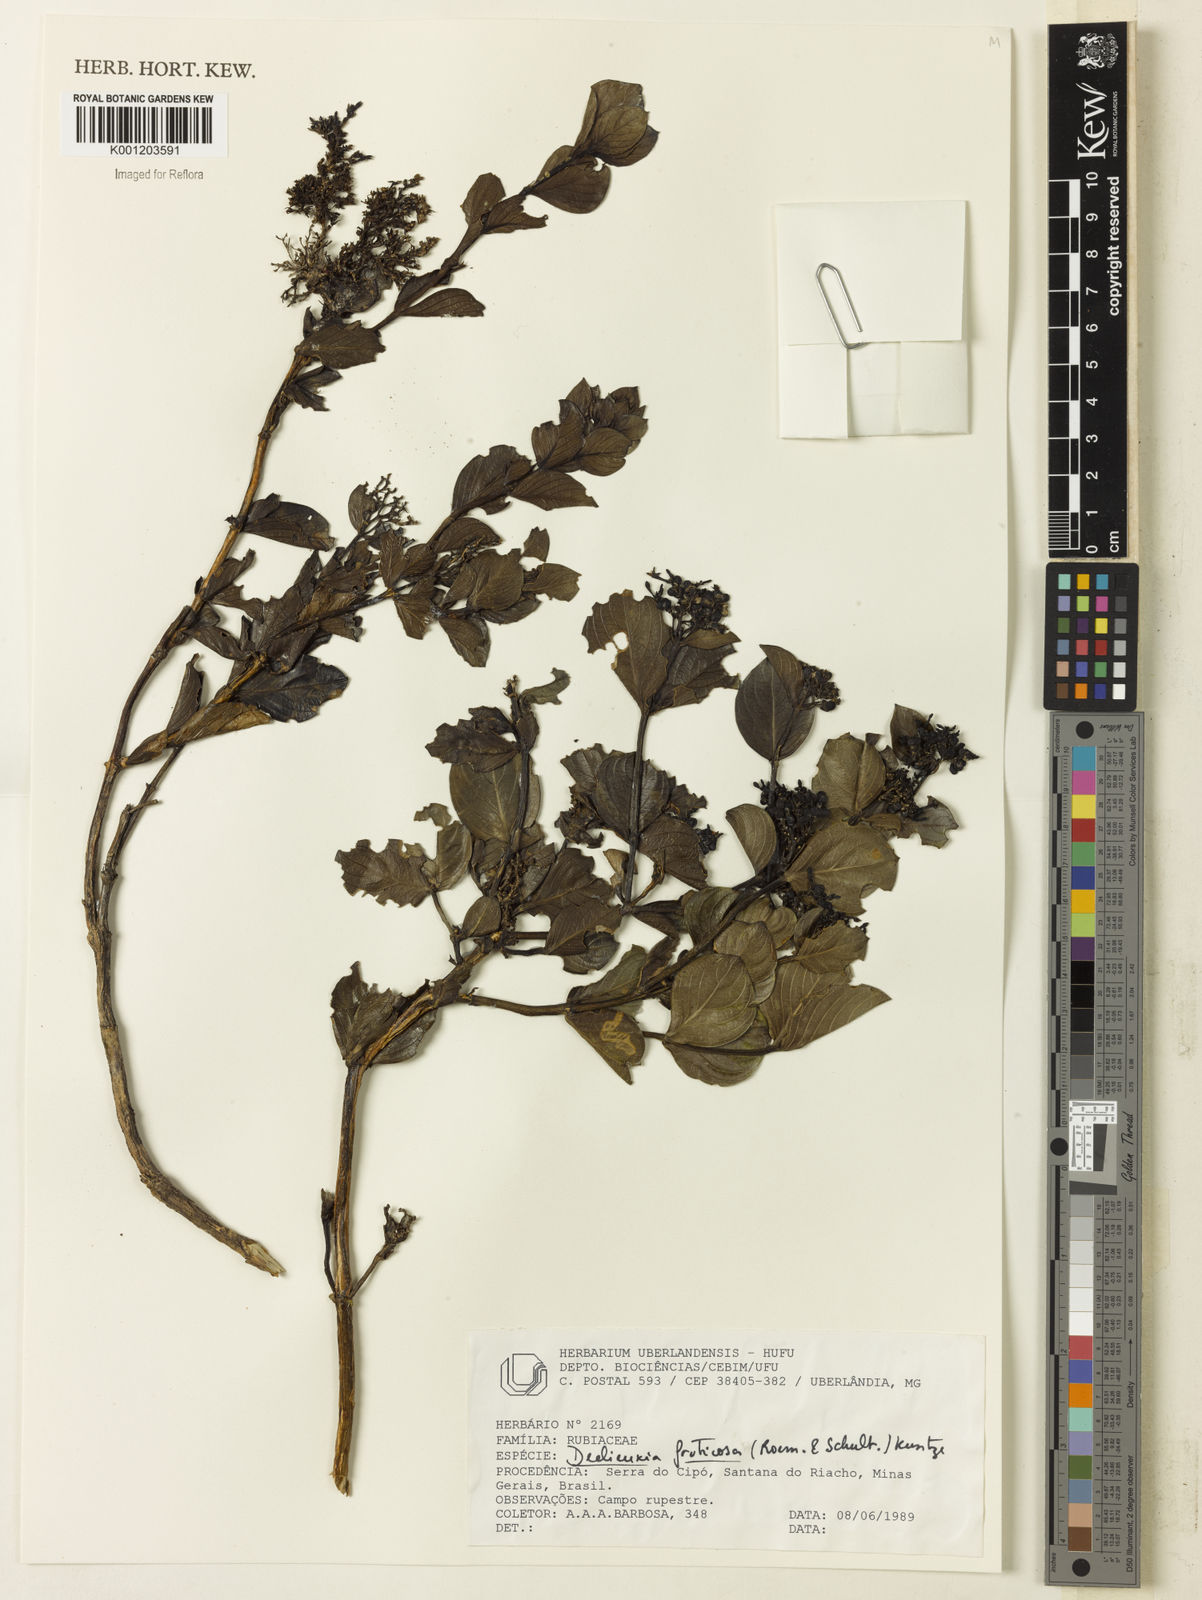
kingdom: Plantae
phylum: Tracheophyta
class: Magnoliopsida
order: Gentianales
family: Rubiaceae
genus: Declieuxia
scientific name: Declieuxia fruticosa
